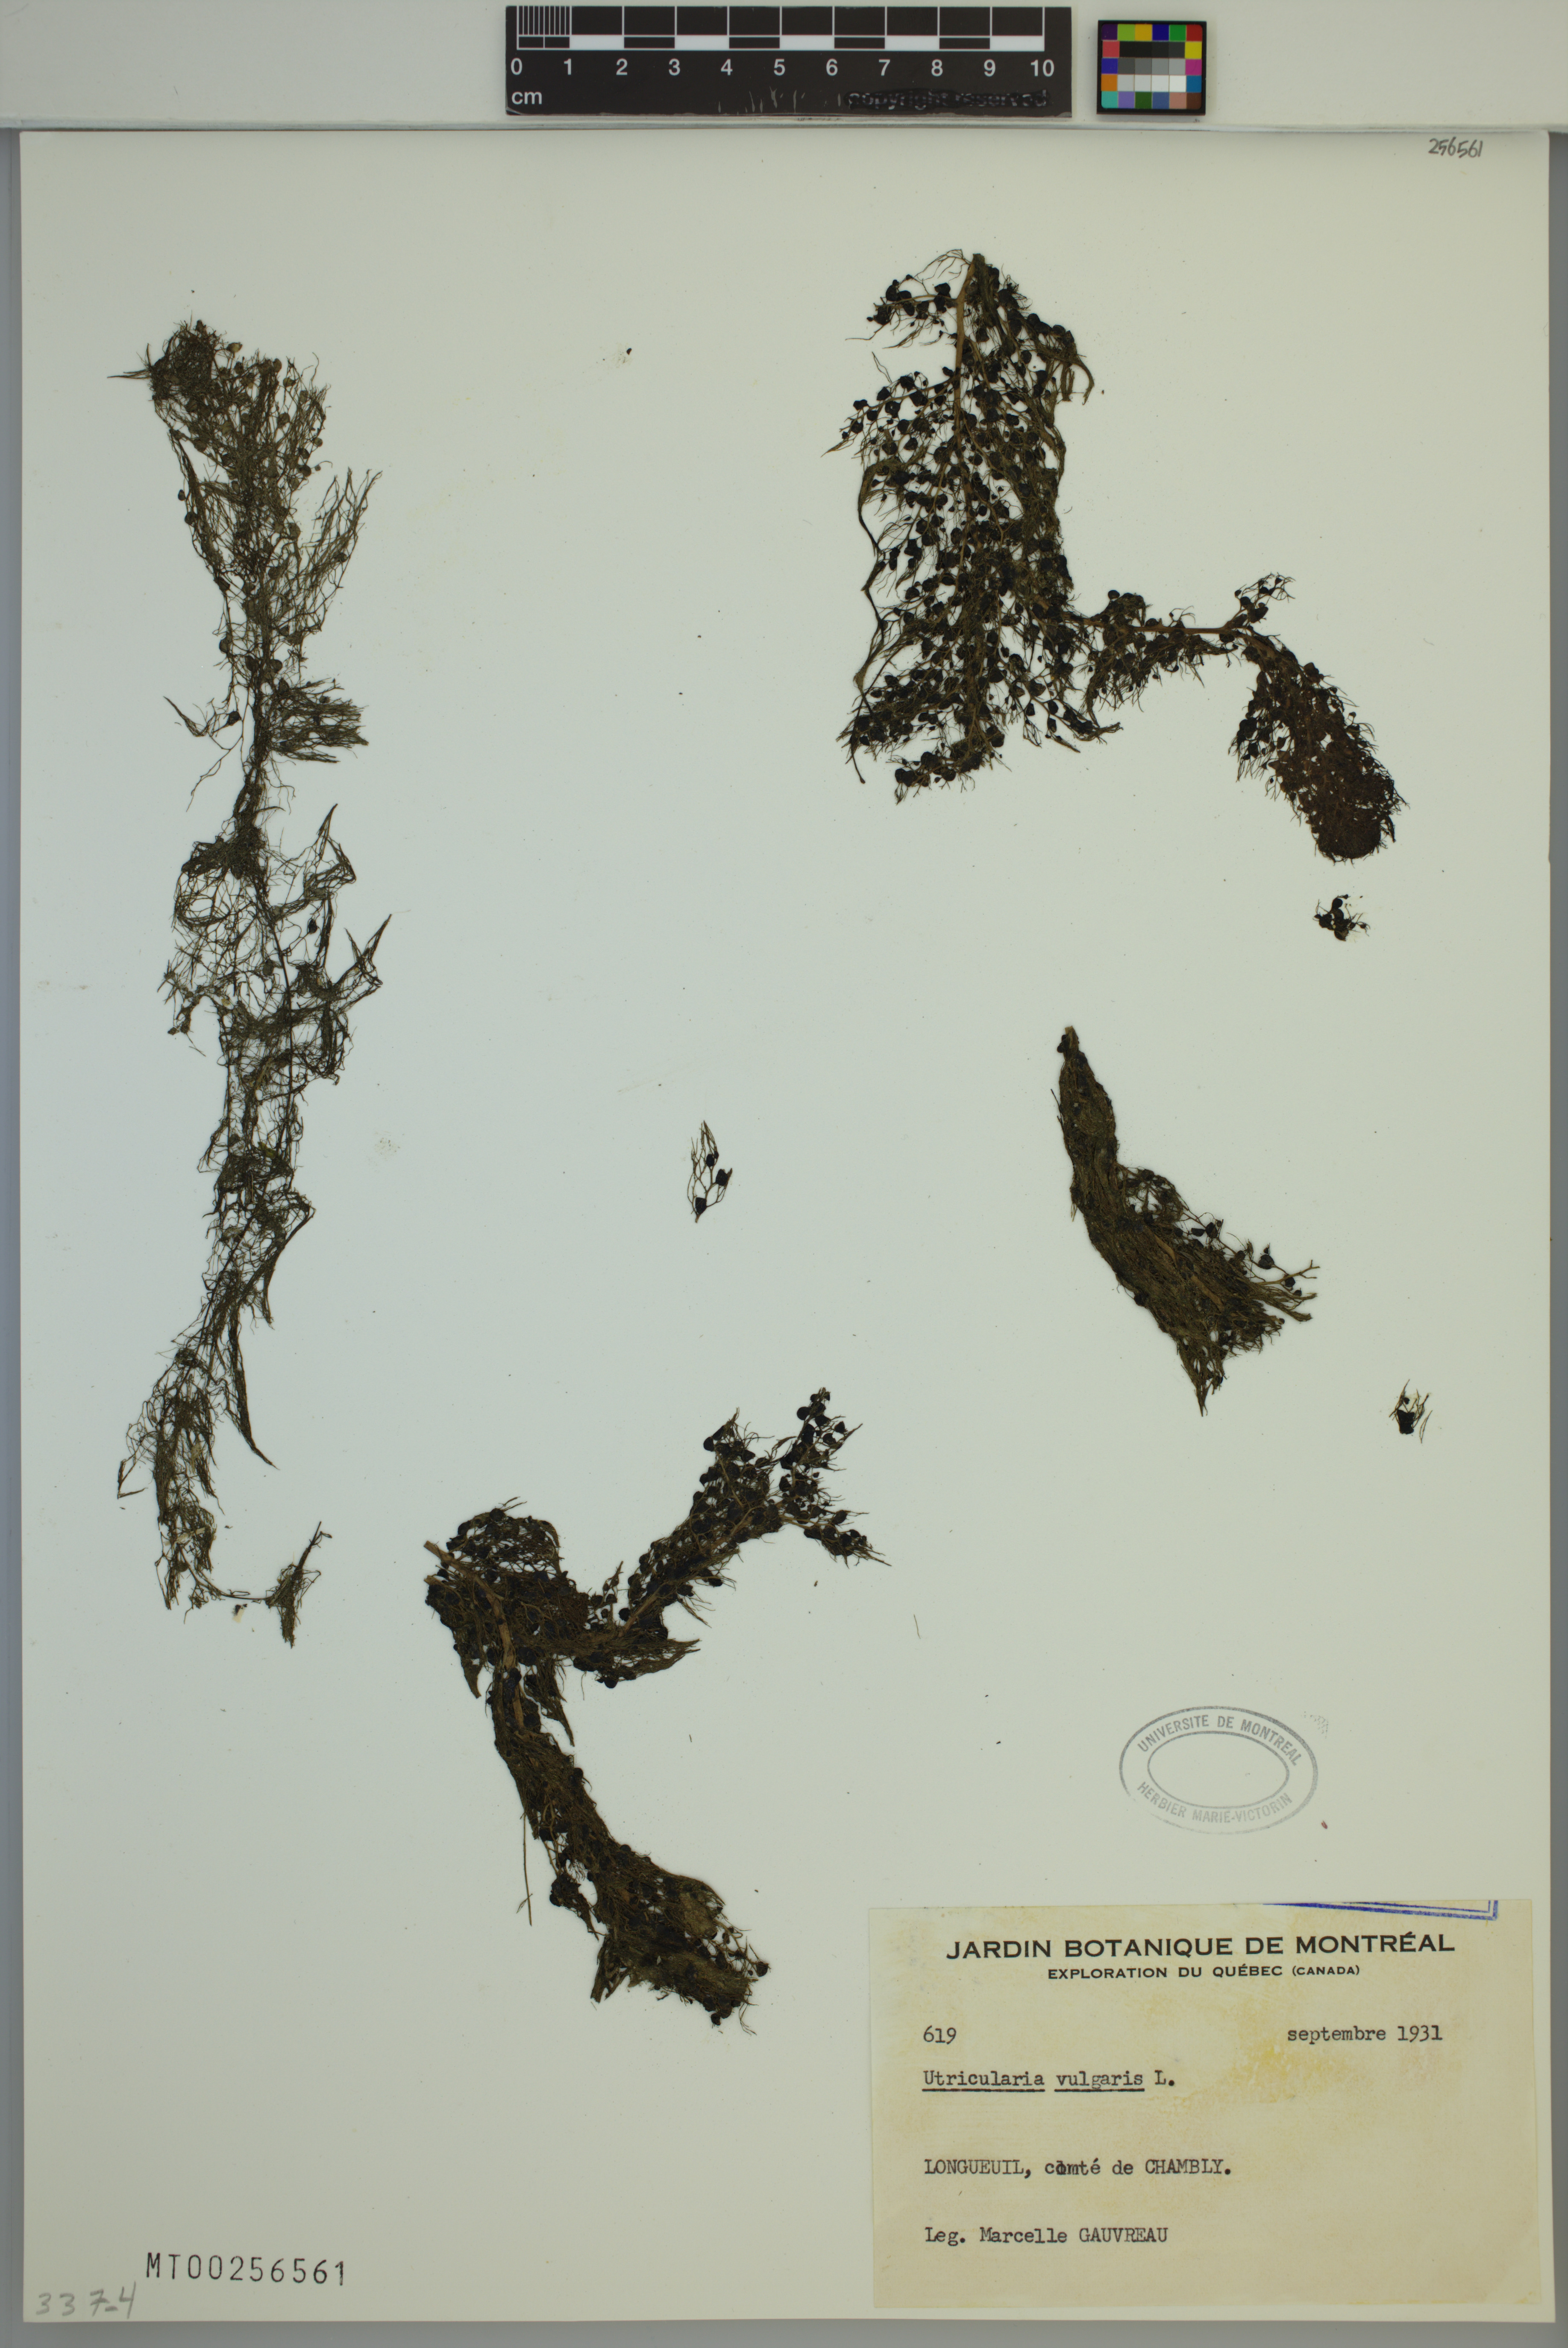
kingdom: Plantae
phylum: Tracheophyta
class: Magnoliopsida
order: Lamiales
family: Lentibulariaceae
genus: Utricularia
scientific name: Utricularia vulgaris
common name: Greater bladderwort
